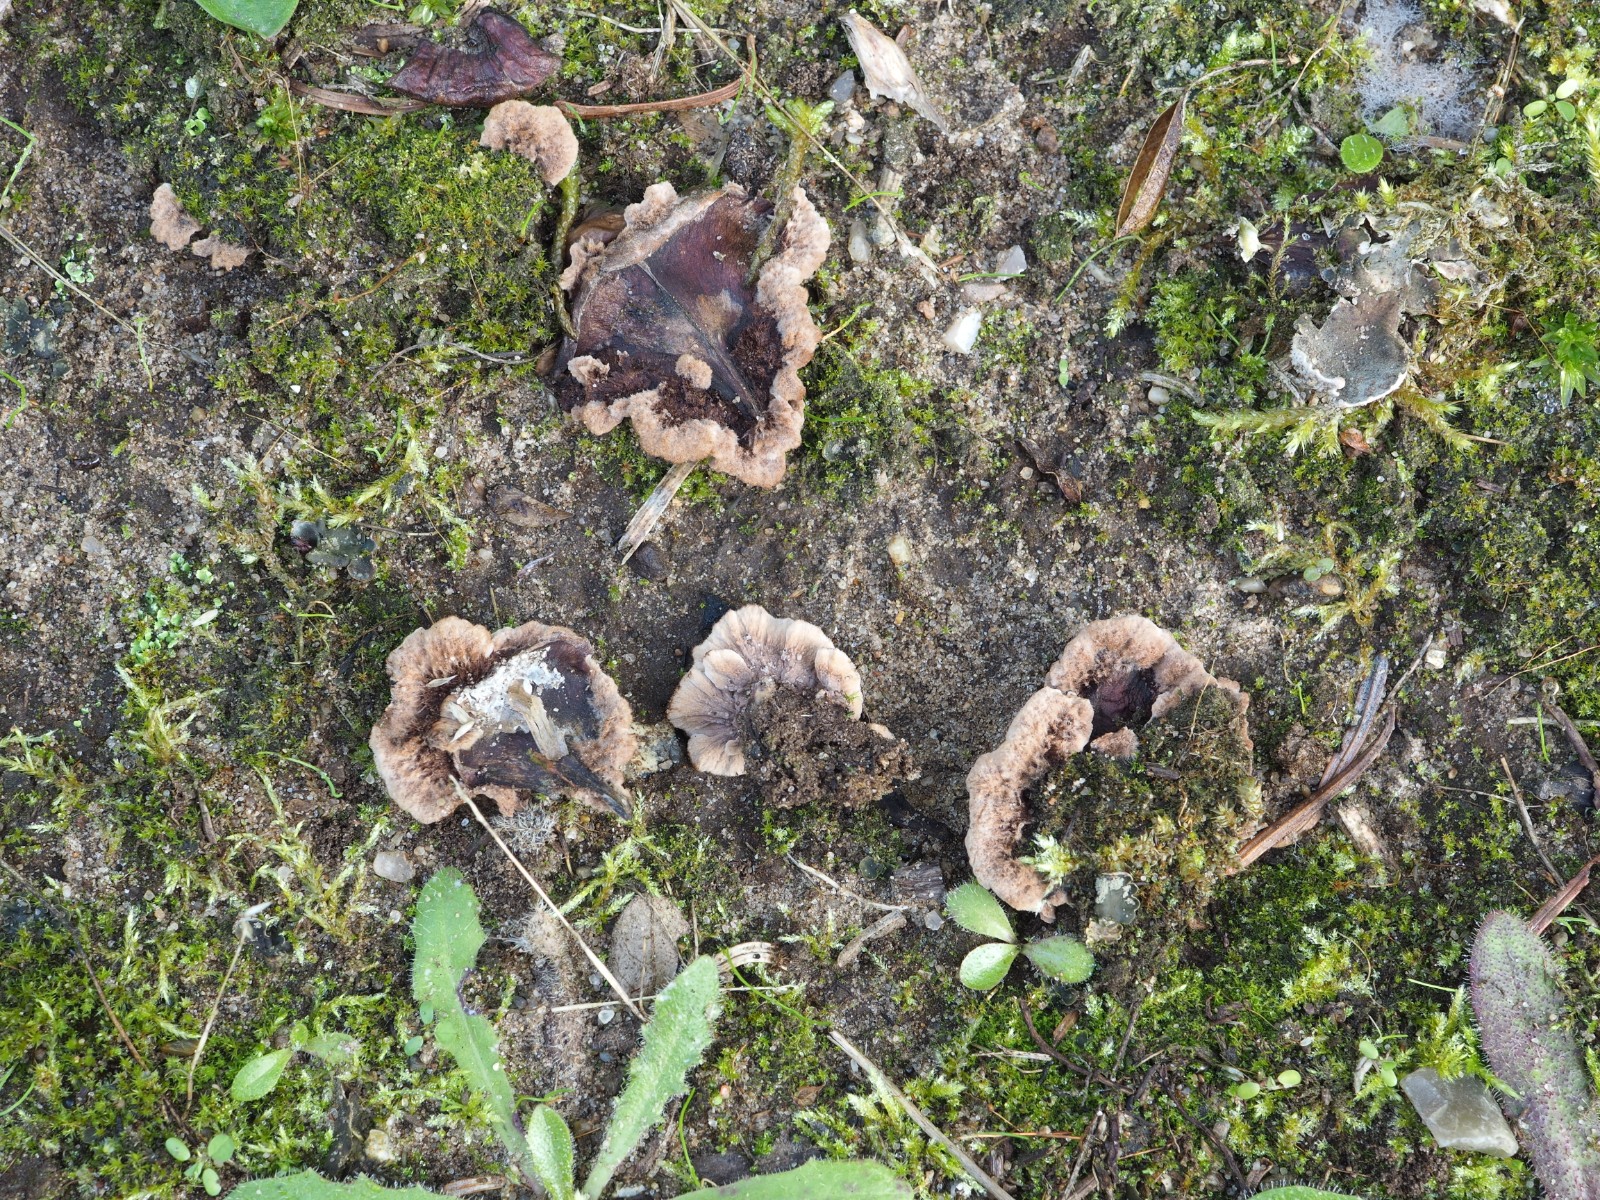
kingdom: Fungi
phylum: Basidiomycota
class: Agaricomycetes
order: Thelephorales
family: Thelephoraceae
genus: Thelephora
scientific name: Thelephora terrestris
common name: fliget frynsesvamp
